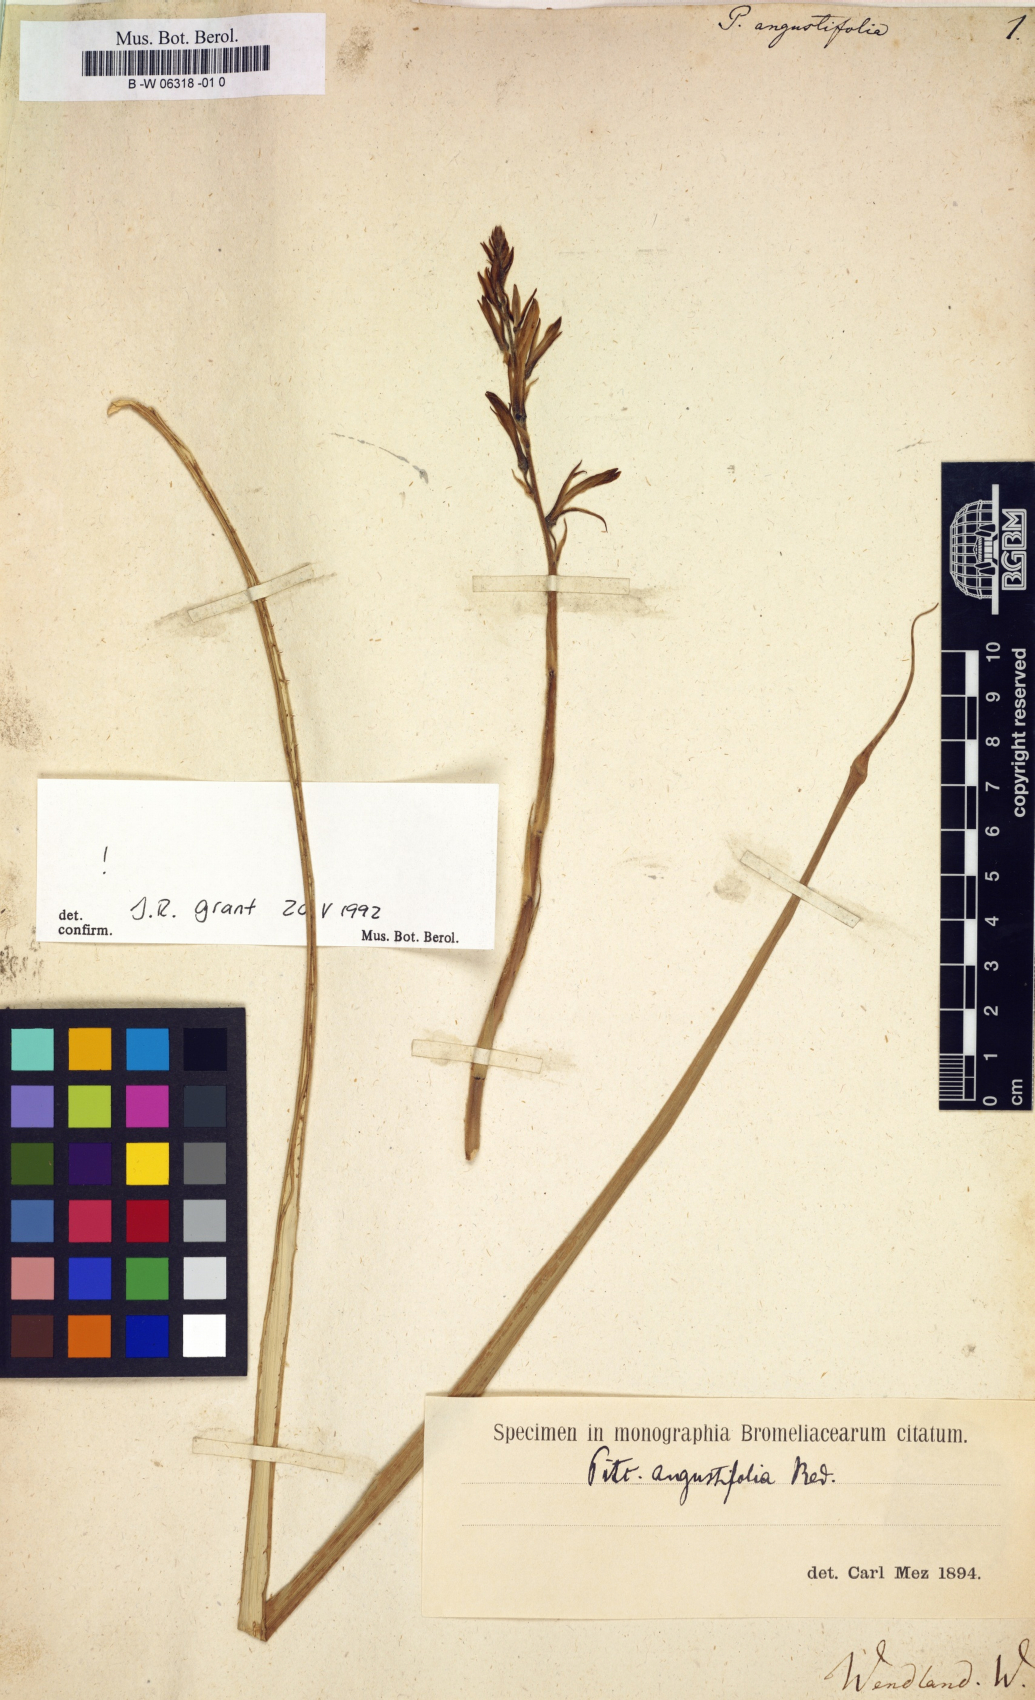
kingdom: Plantae
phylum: Tracheophyta
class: Liliopsida
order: Poales
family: Bromeliaceae
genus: Pitcairnia
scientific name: Pitcairnia angustifolia
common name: Clapper
